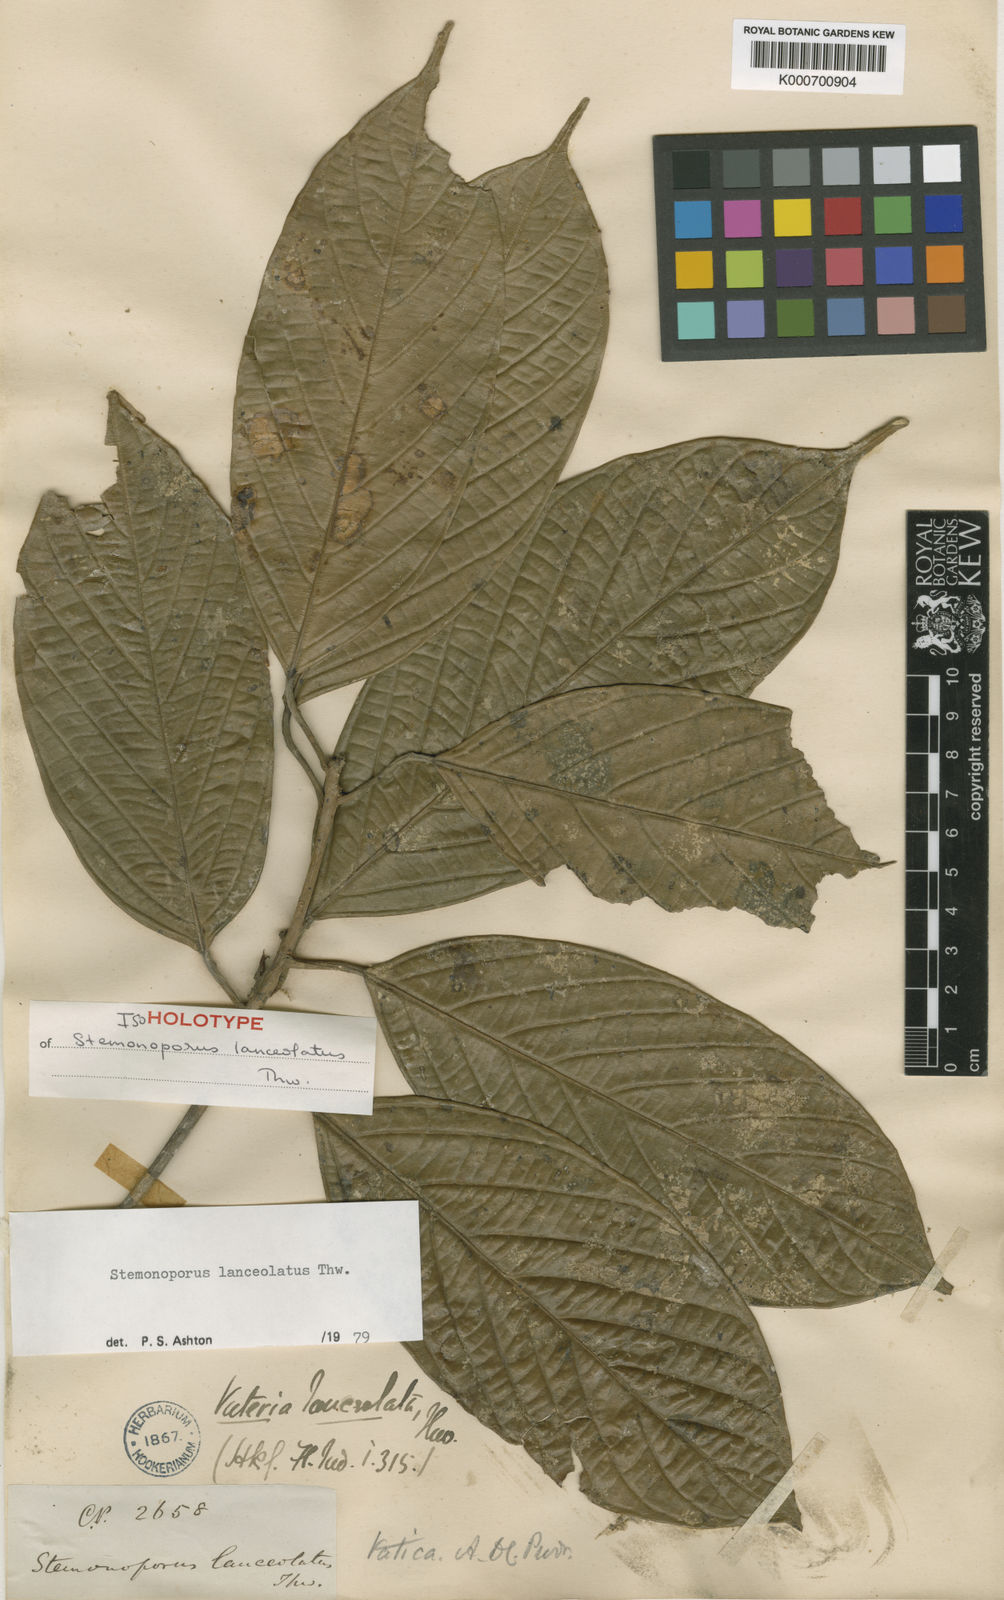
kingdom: Plantae
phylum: Tracheophyta
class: Magnoliopsida
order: Malvales
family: Dipterocarpaceae
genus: Stemonoporus
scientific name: Stemonoporus lanceolatus
